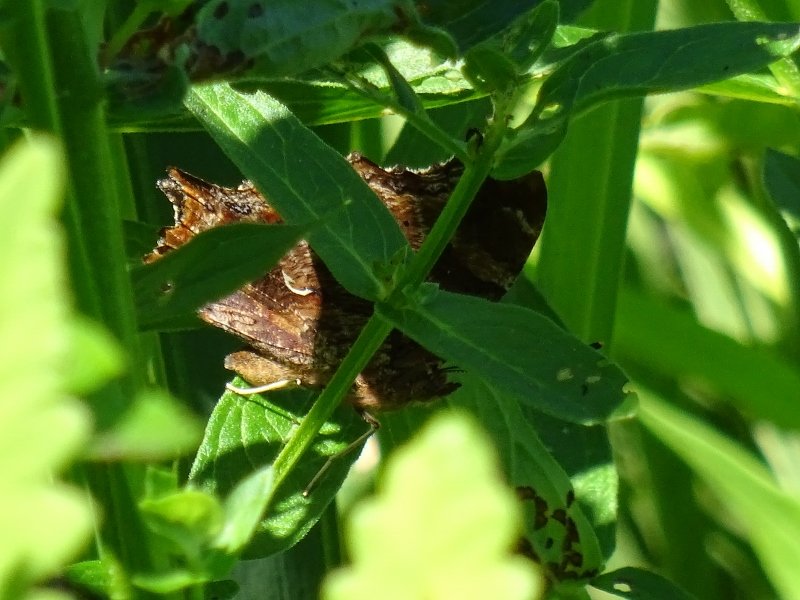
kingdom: Animalia
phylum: Arthropoda
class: Insecta
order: Lepidoptera
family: Nymphalidae
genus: Polygonia
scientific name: Polygonia comma
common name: Eastern Comma
